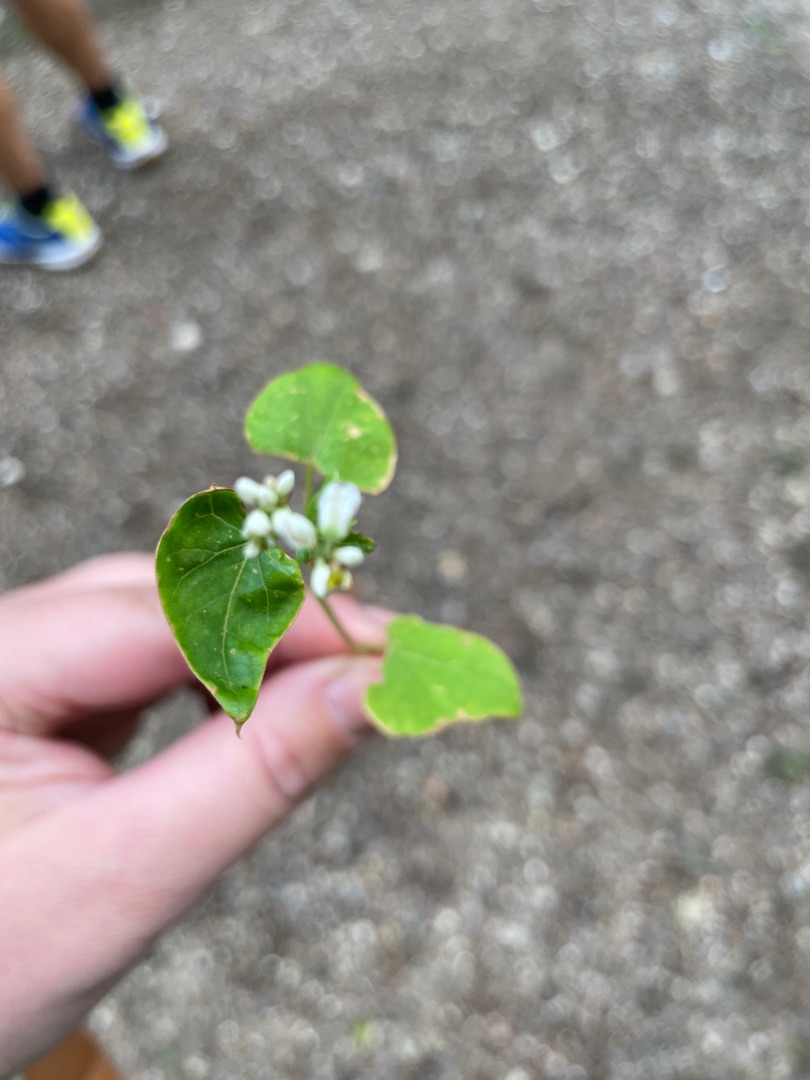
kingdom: Plantae
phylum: Tracheophyta
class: Magnoliopsida
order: Caryophyllales
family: Polygonaceae
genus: Fagopyrum
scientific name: Fagopyrum esculentum
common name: Almindelig boghvede
